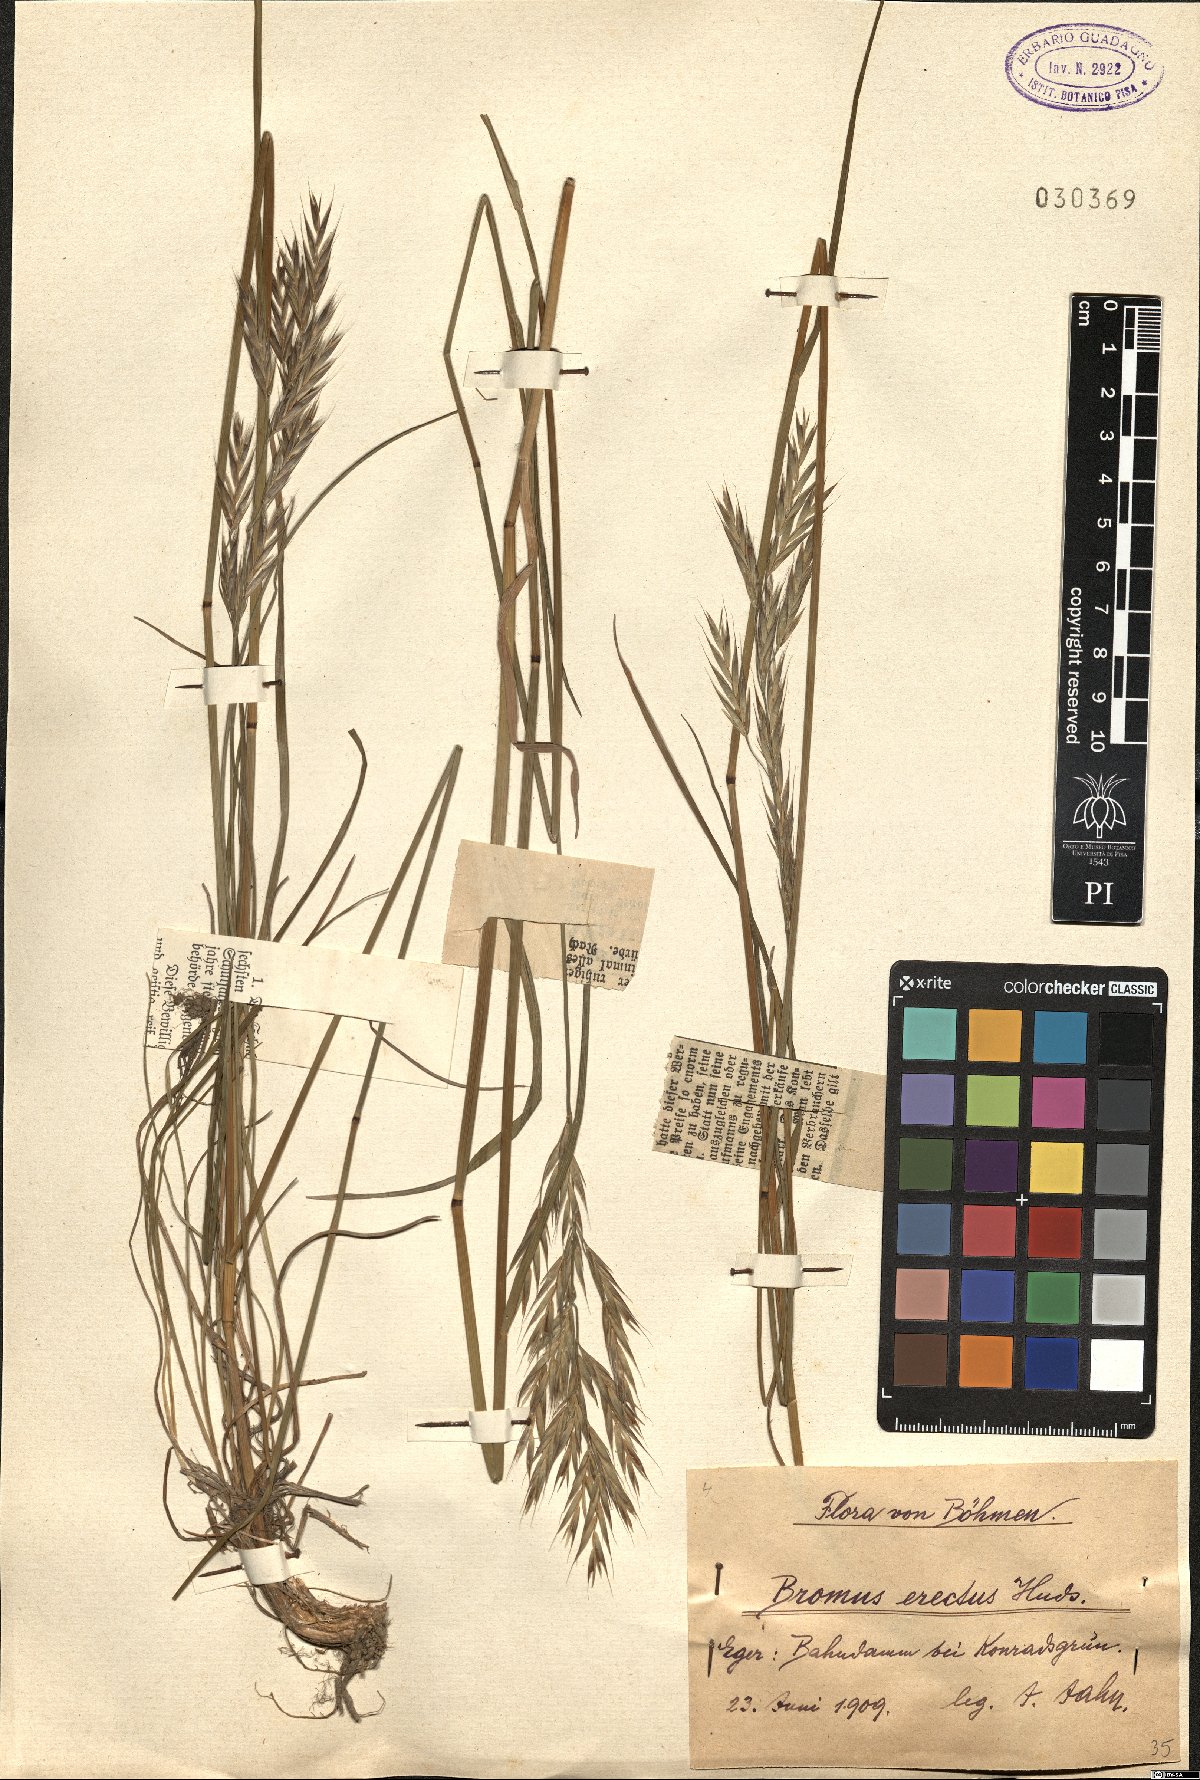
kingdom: Plantae
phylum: Tracheophyta
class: Liliopsida
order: Poales
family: Poaceae
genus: Bromus
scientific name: Bromus erectus
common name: Erect brome
